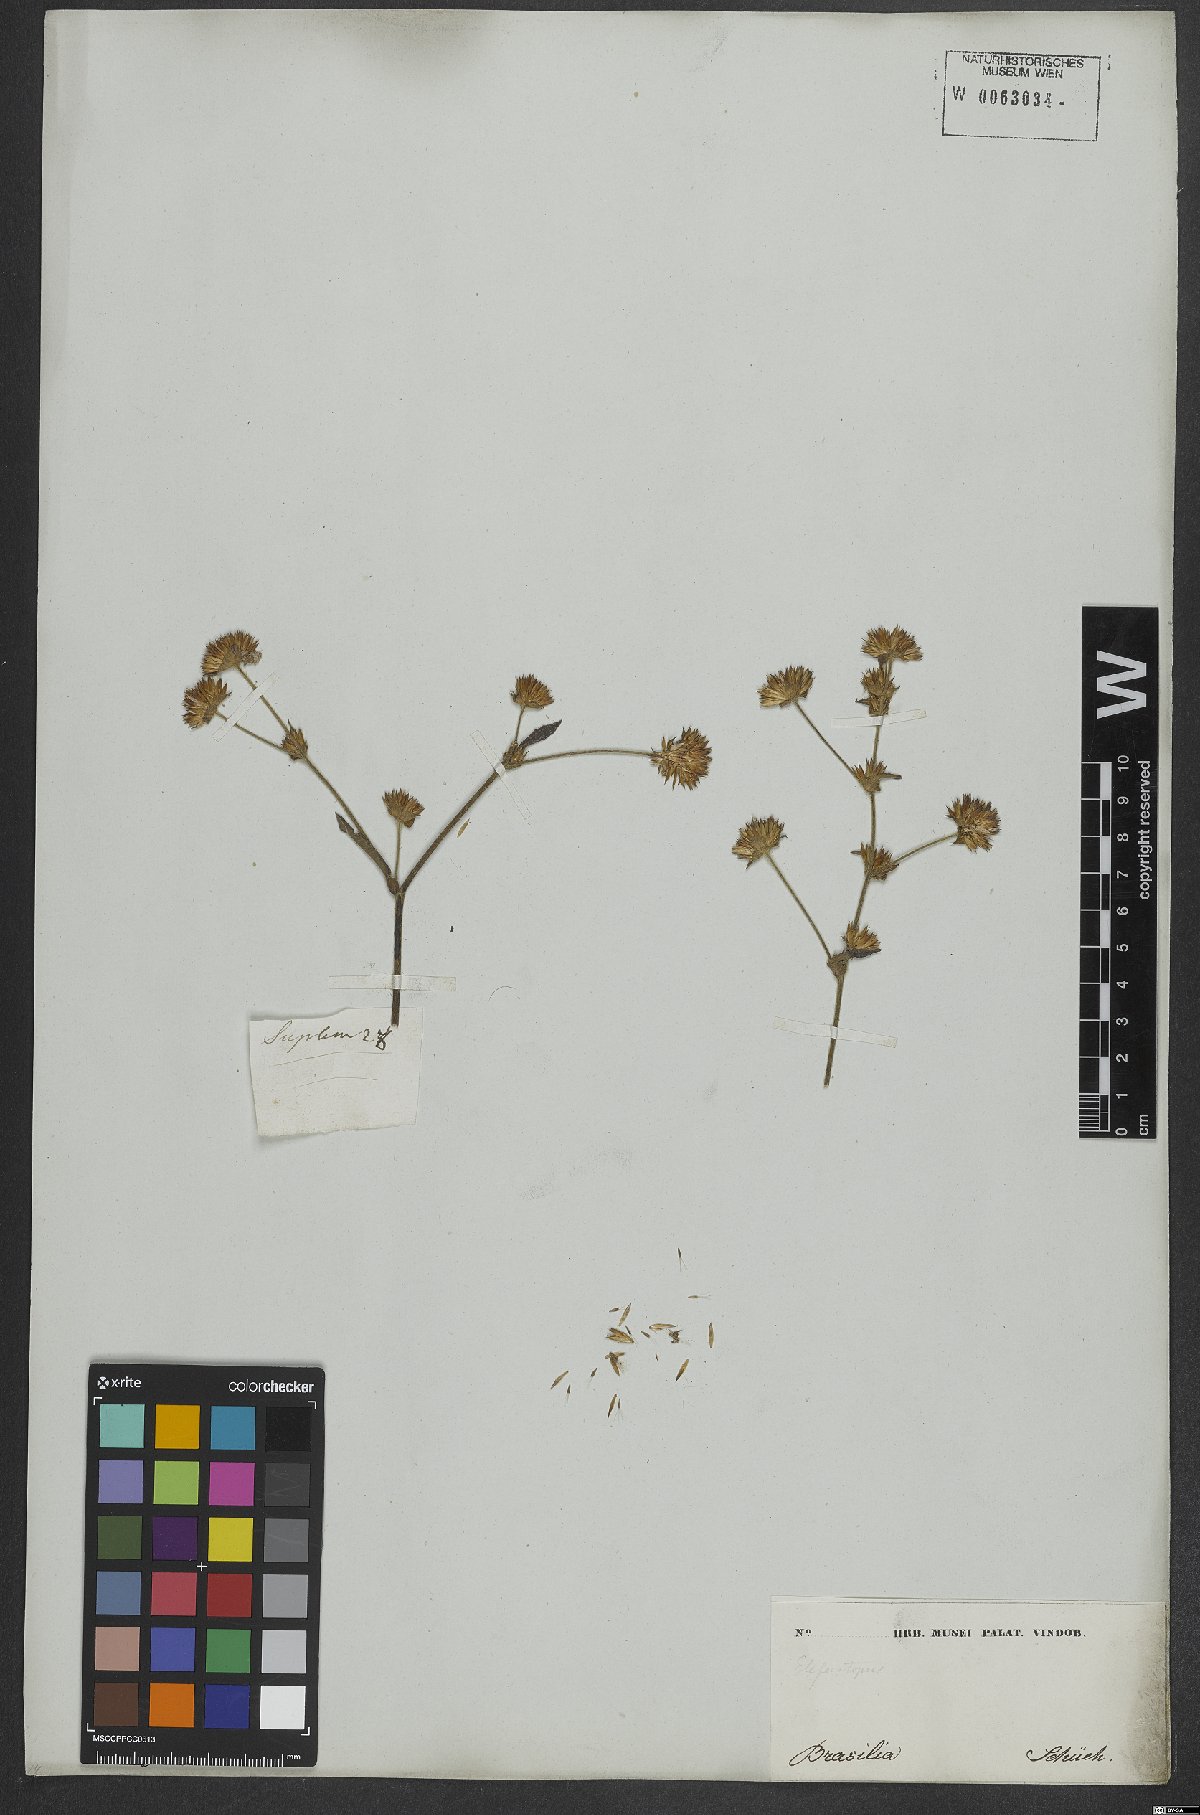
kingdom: Plantae
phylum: Tracheophyta
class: Magnoliopsida
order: Asterales
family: Asteraceae
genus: Elephantopus
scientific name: Elephantopus
